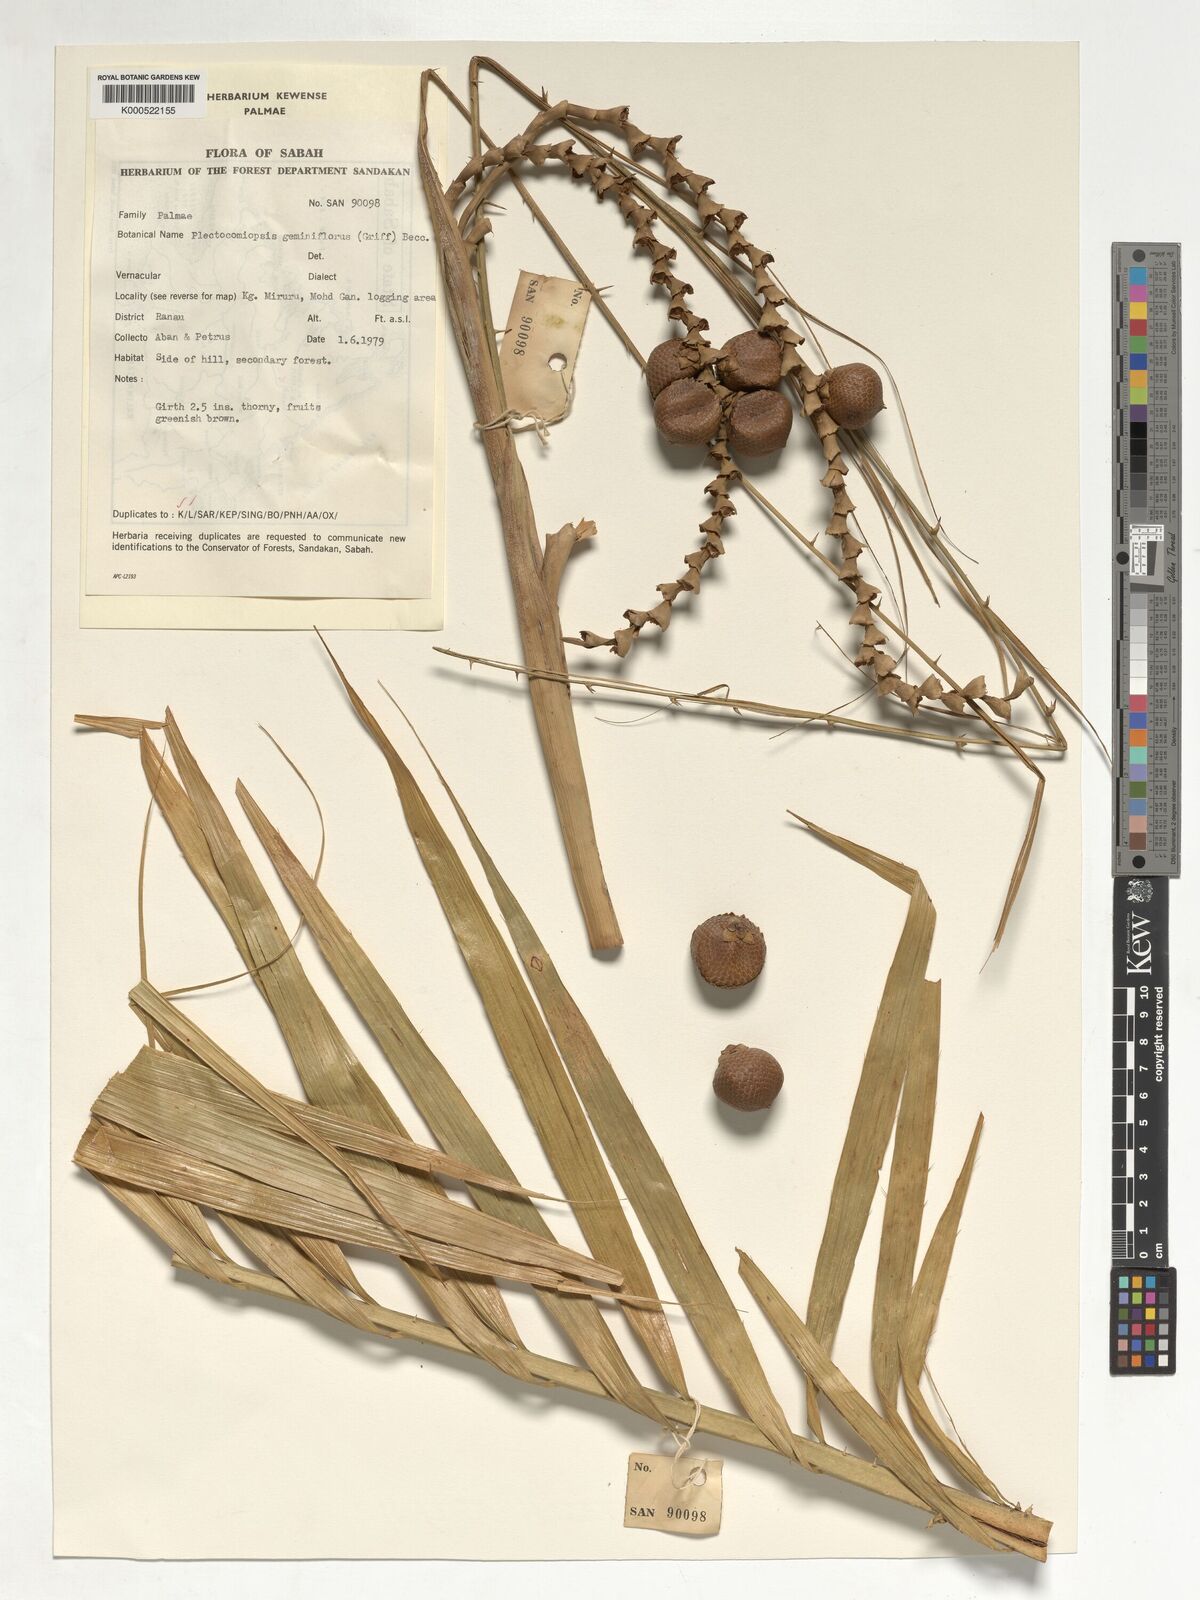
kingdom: Plantae
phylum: Tracheophyta
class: Liliopsida
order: Arecales
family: Arecaceae
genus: Plectocomiopsis
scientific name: Plectocomiopsis geminiflora
